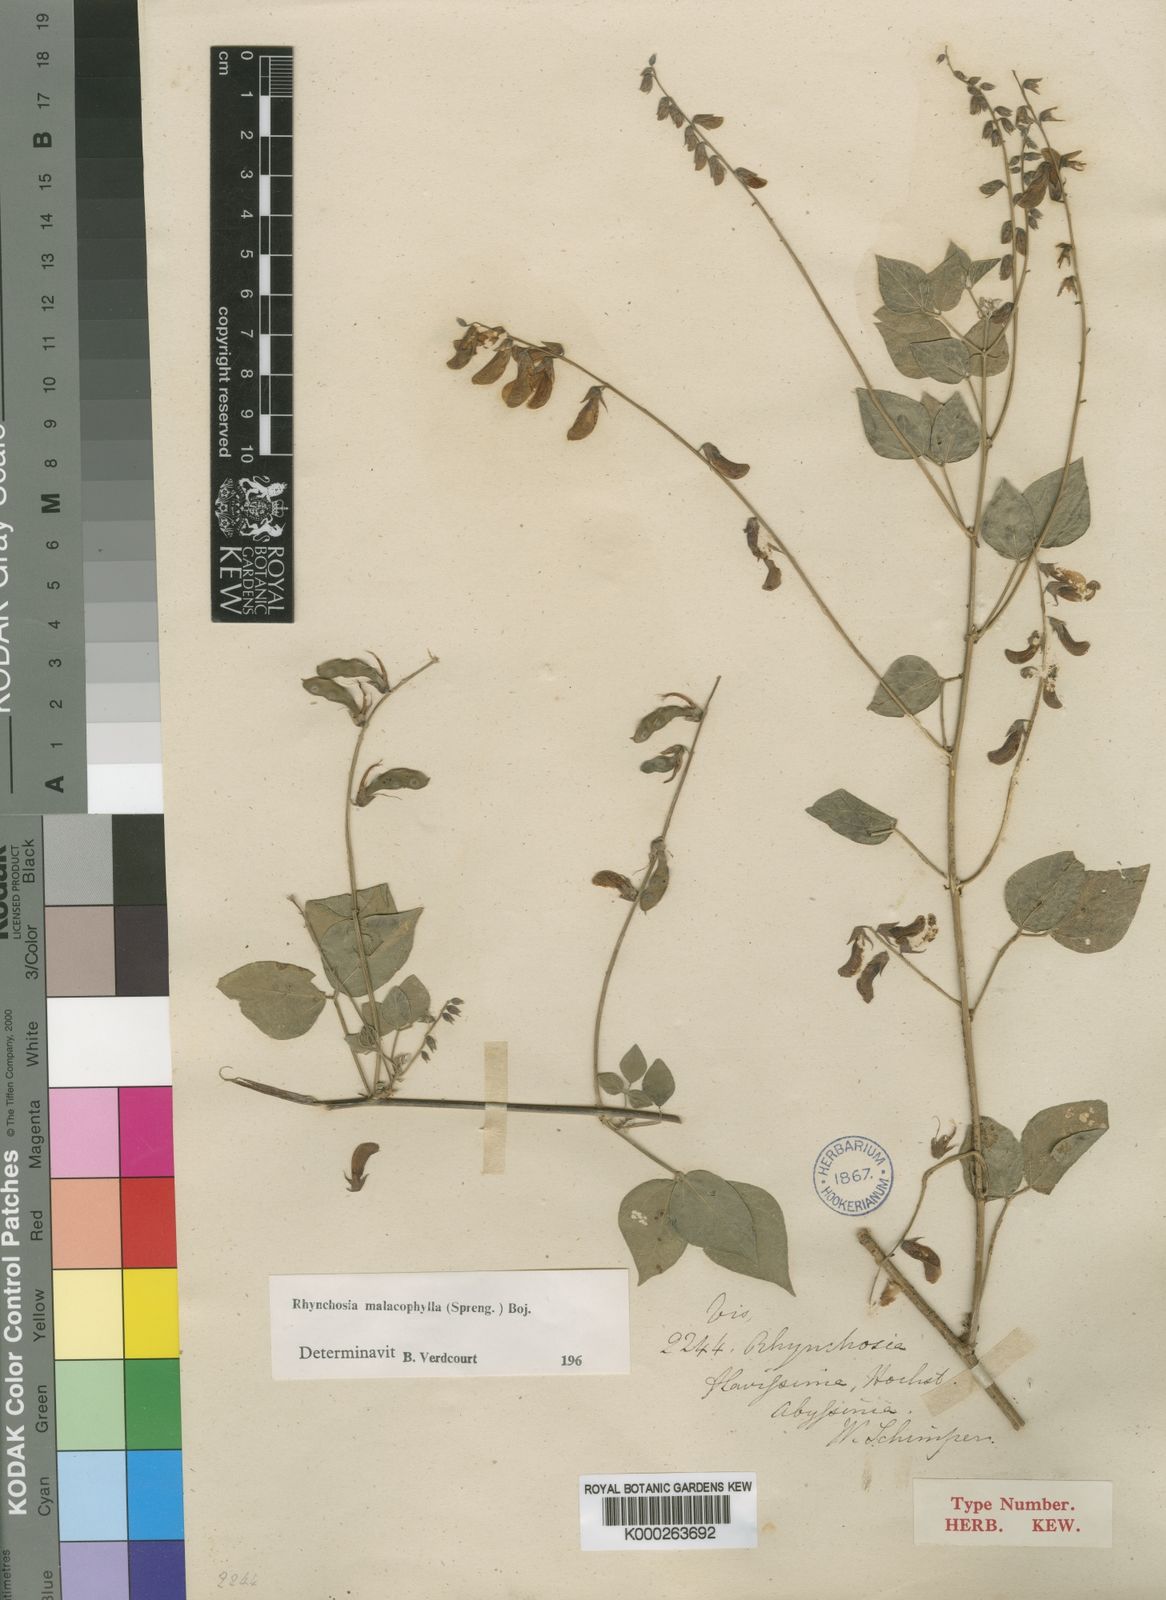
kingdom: Plantae
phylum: Tracheophyta
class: Magnoliopsida
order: Fabales
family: Fabaceae
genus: Rhynchosia
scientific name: Rhynchosia malacophylla
